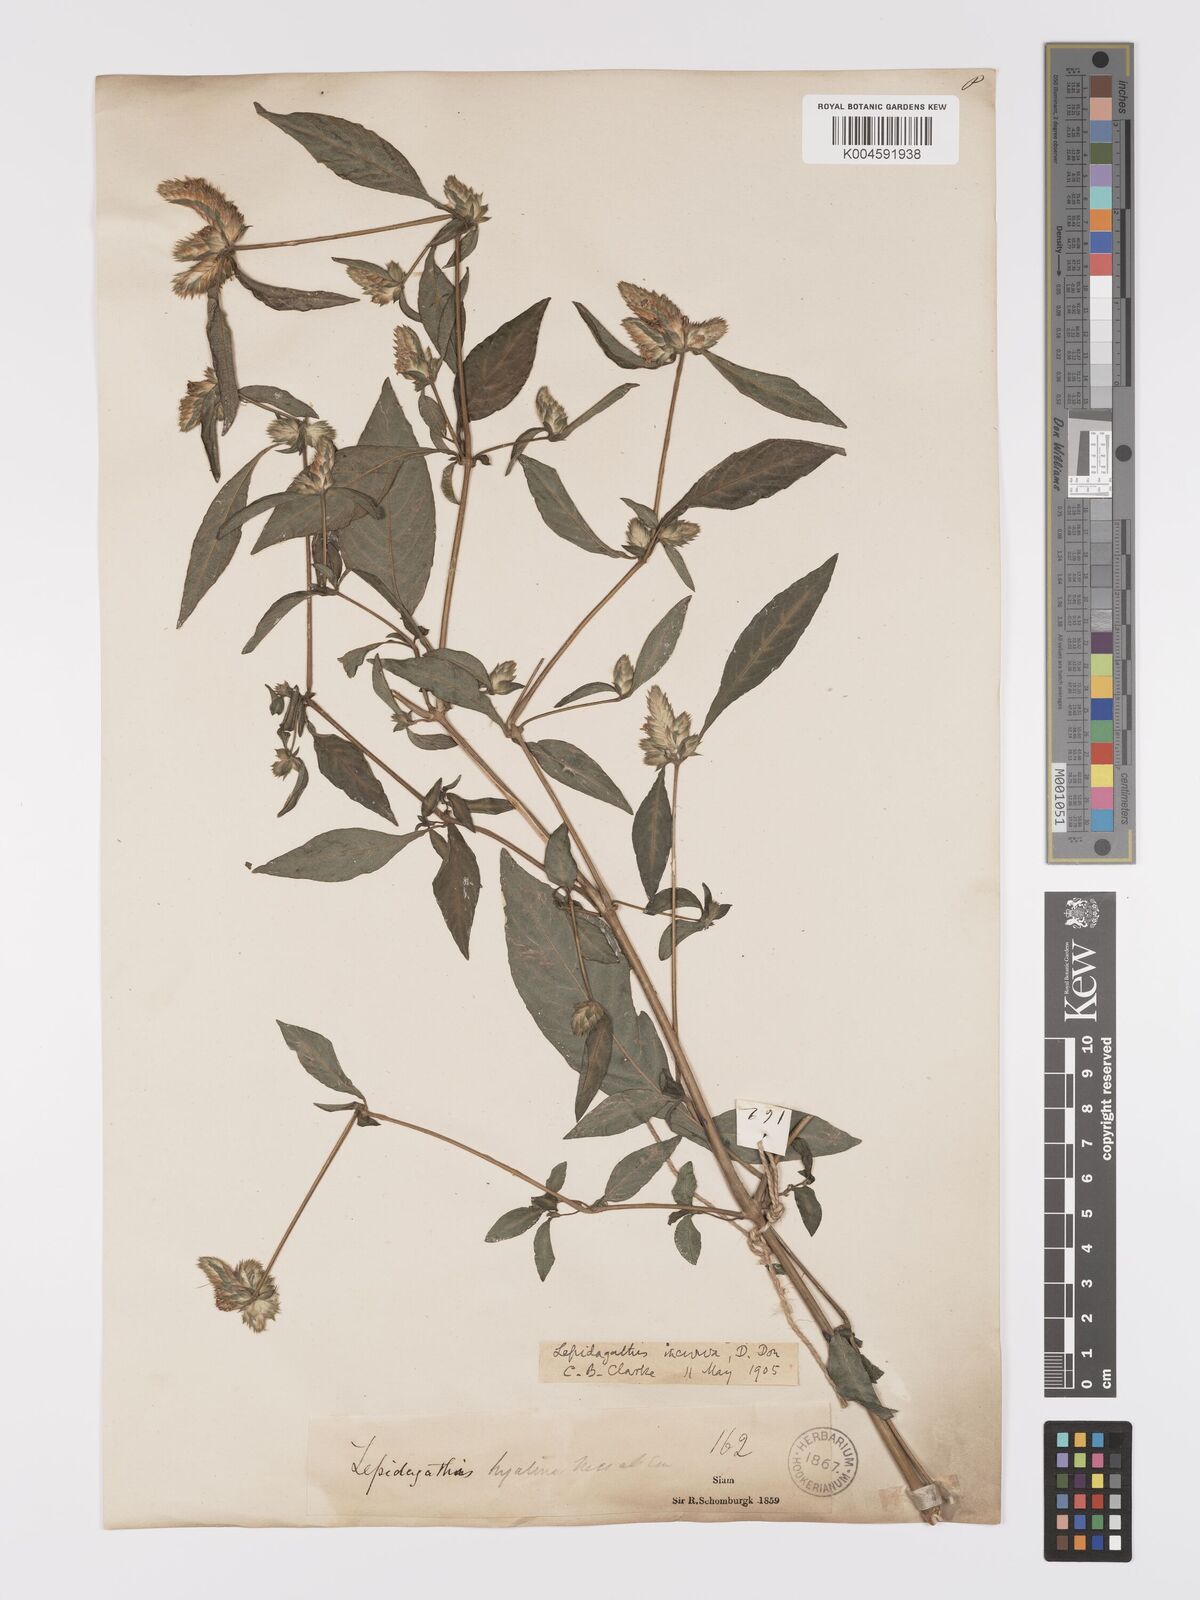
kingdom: Plantae
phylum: Tracheophyta
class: Magnoliopsida
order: Lamiales
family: Acanthaceae
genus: Lepidagathis
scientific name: Lepidagathis incurva
